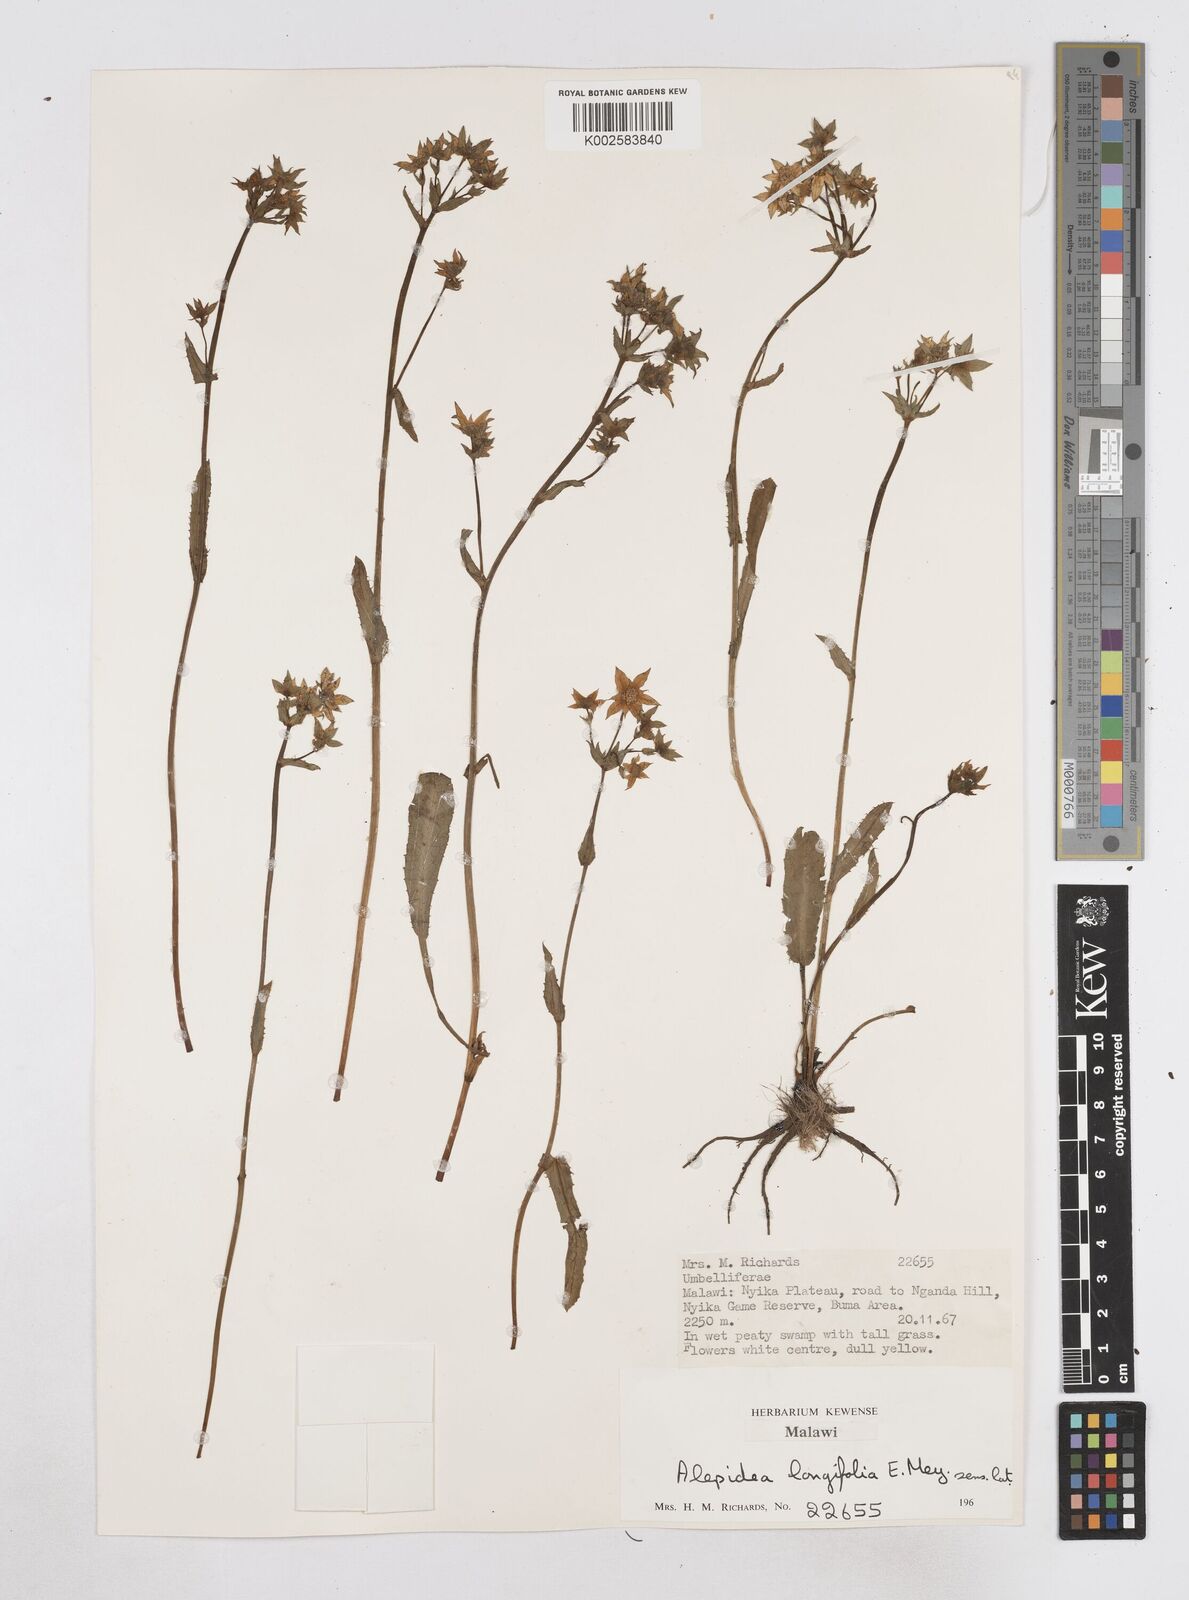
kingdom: Plantae
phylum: Tracheophyta
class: Magnoliopsida
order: Apiales
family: Apiaceae
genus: Alepidea
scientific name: Alepidea peduncularis
